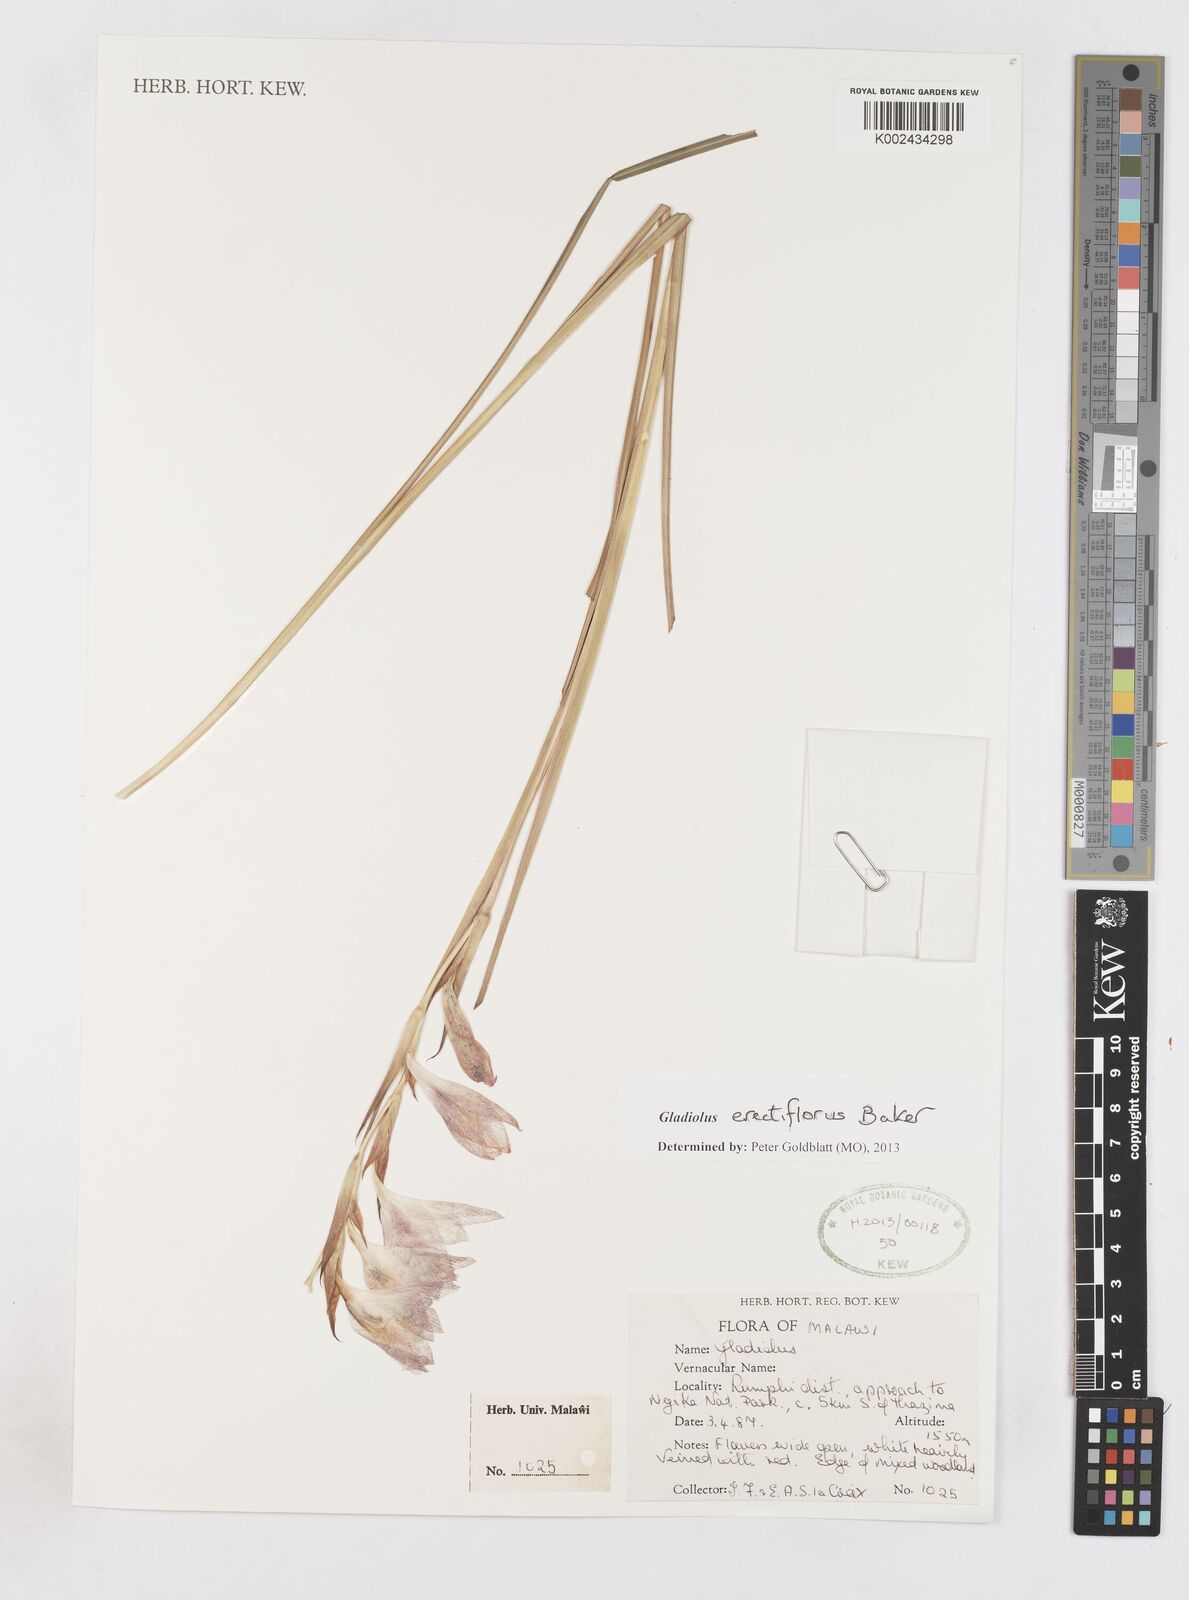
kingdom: Plantae
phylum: Tracheophyta
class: Liliopsida
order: Asparagales
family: Iridaceae
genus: Gladiolus
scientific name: Gladiolus erectiflorus
